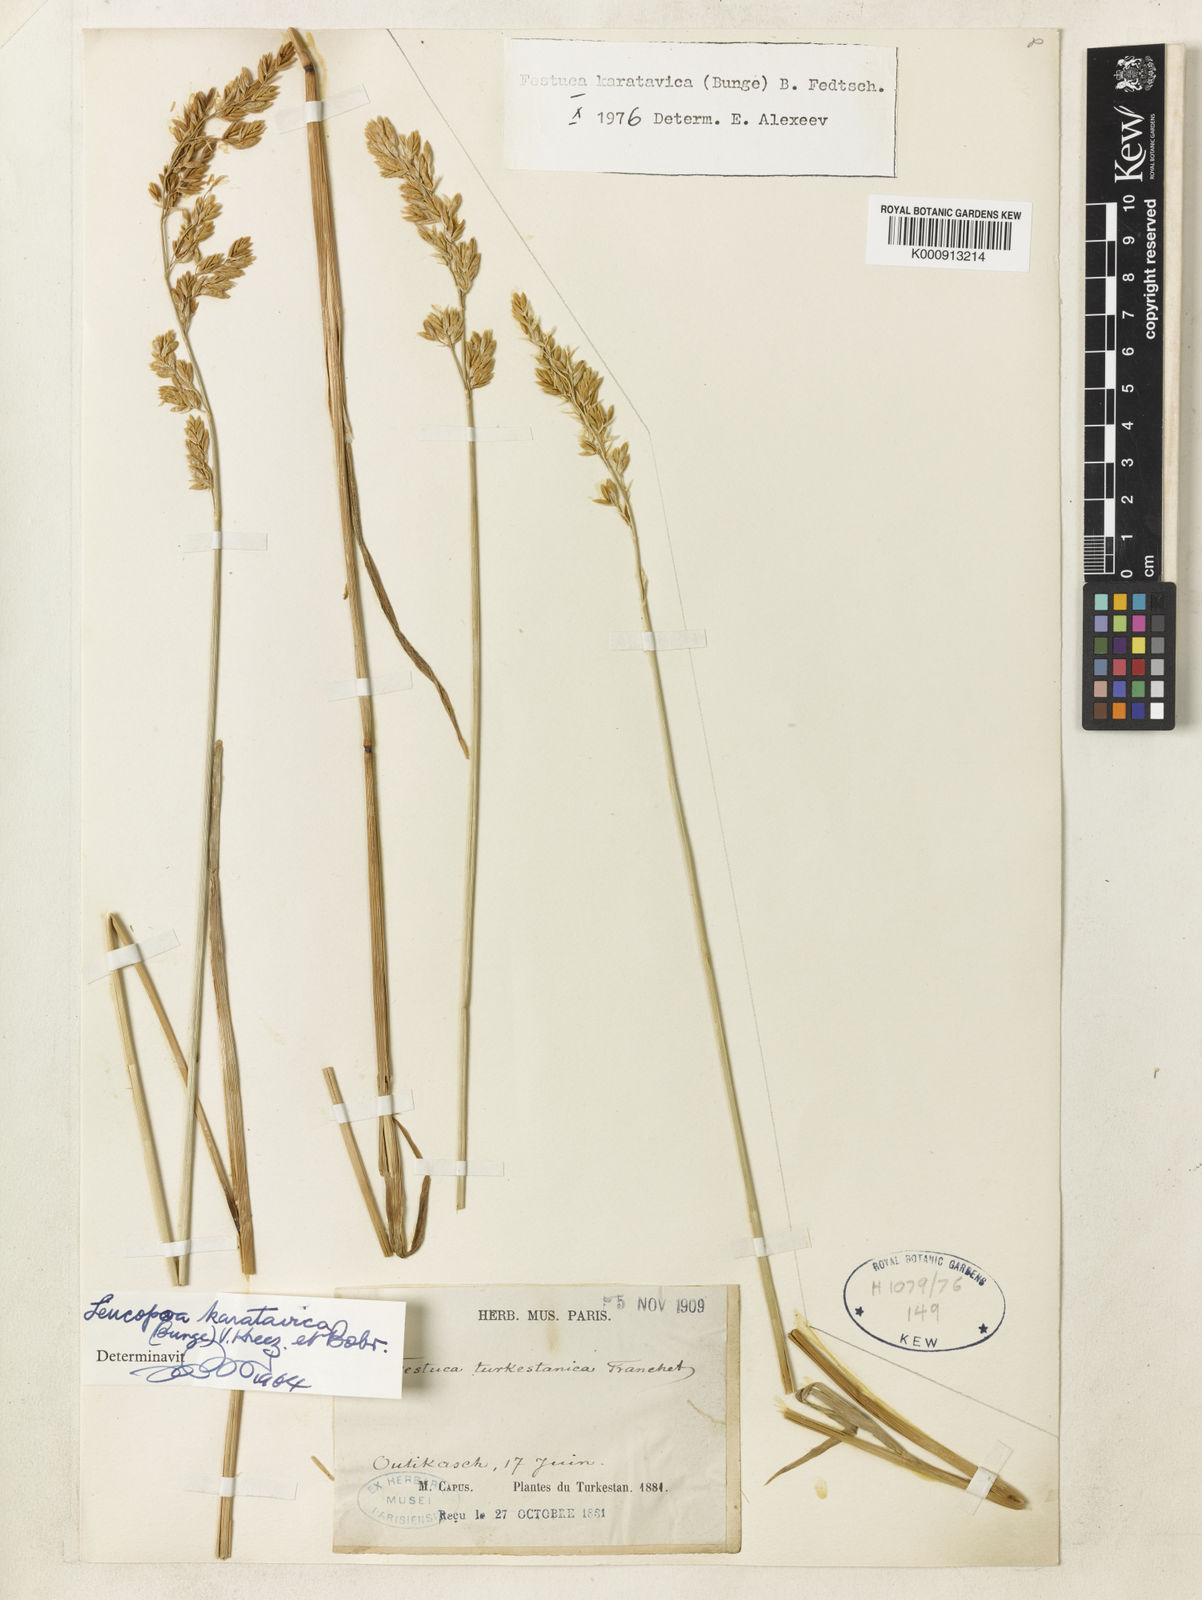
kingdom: Plantae
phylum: Tracheophyta
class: Liliopsida
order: Poales
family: Poaceae
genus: Festuca
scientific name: Festuca karatavica
